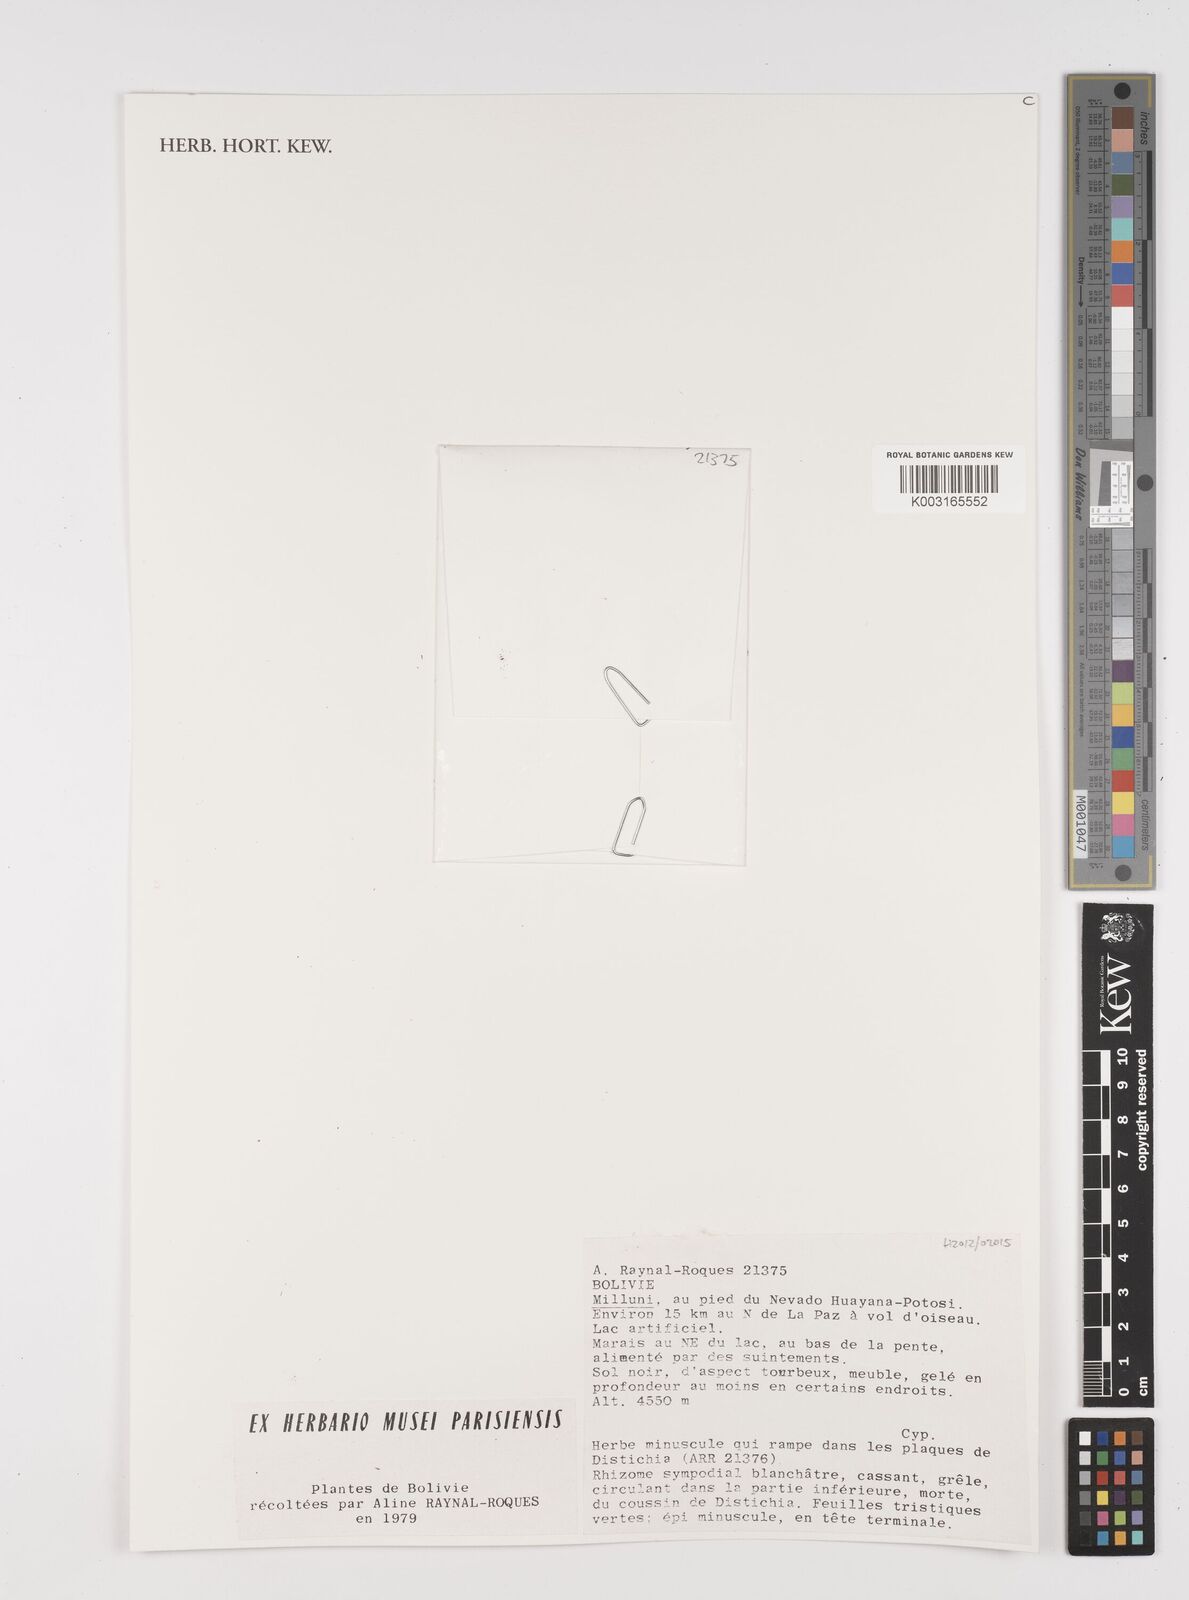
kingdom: Plantae
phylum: Tracheophyta
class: Liliopsida
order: Poales
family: Juncaceae
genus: Distichia
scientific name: Distichia muscoides
